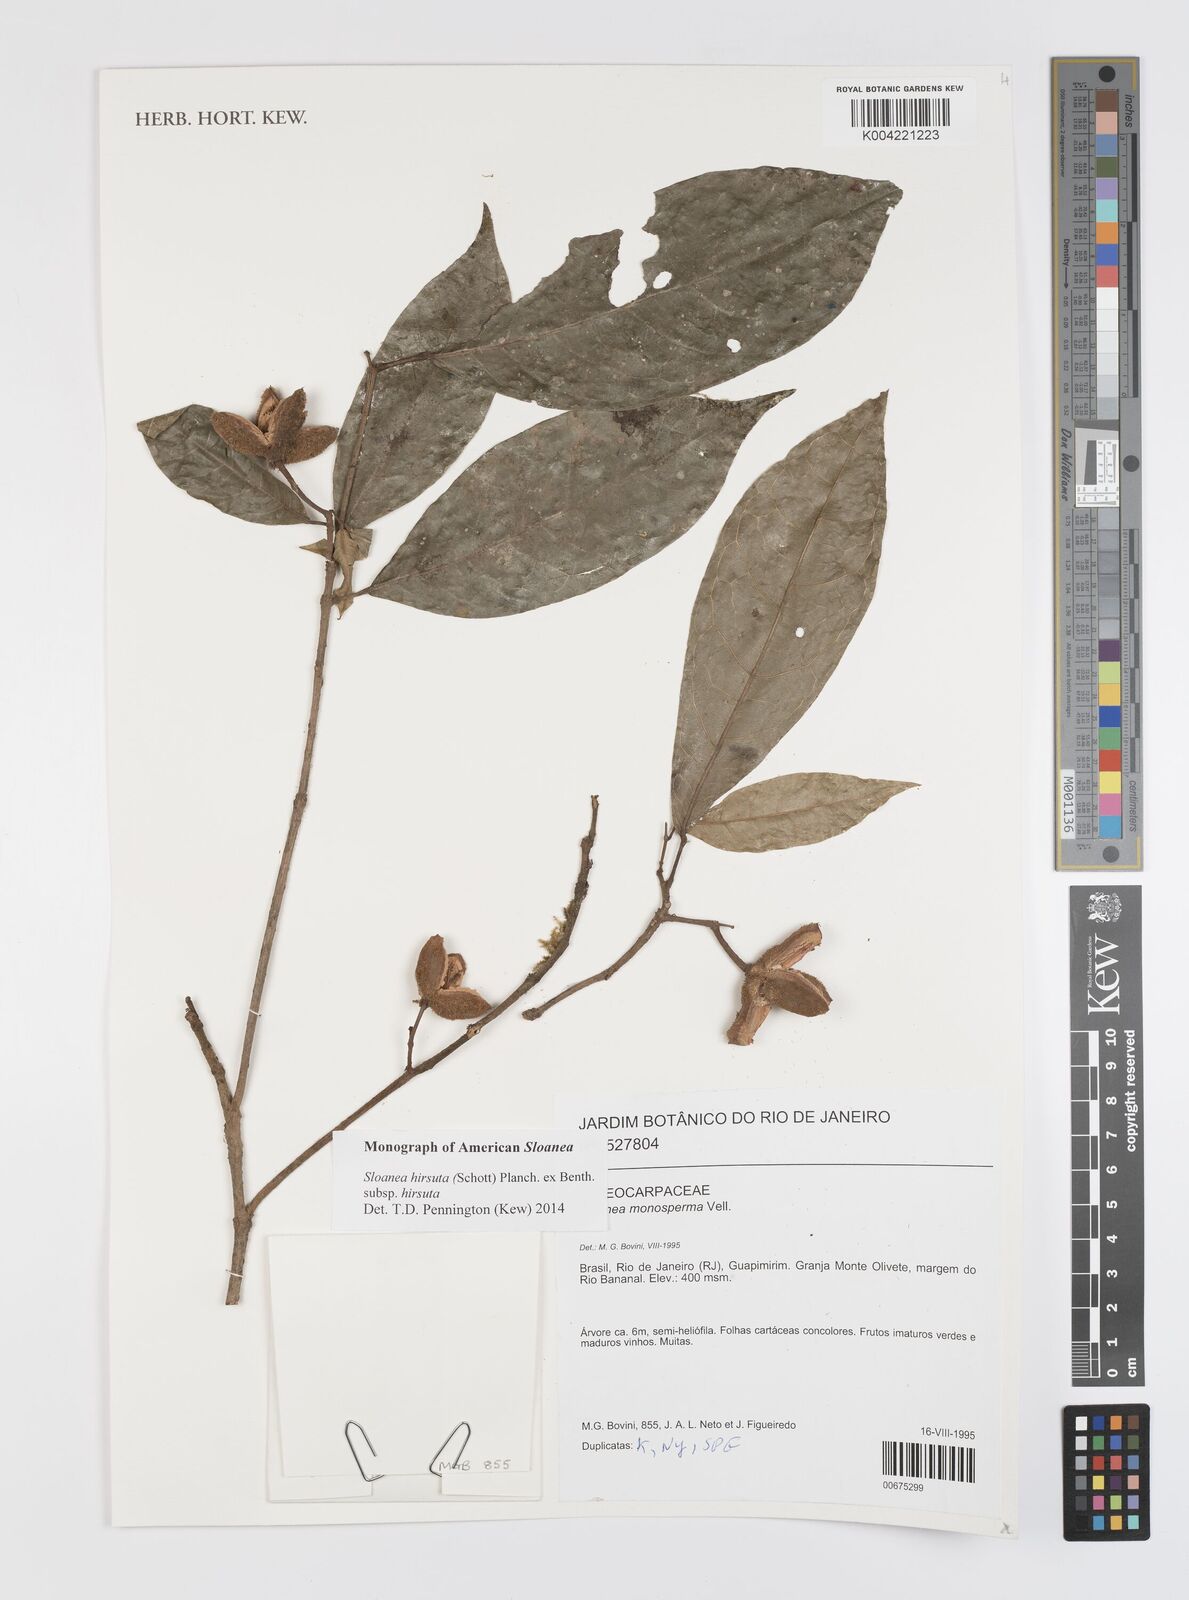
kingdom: Plantae
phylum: Tracheophyta
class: Magnoliopsida
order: Oxalidales
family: Elaeocarpaceae
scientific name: Elaeocarpaceae
